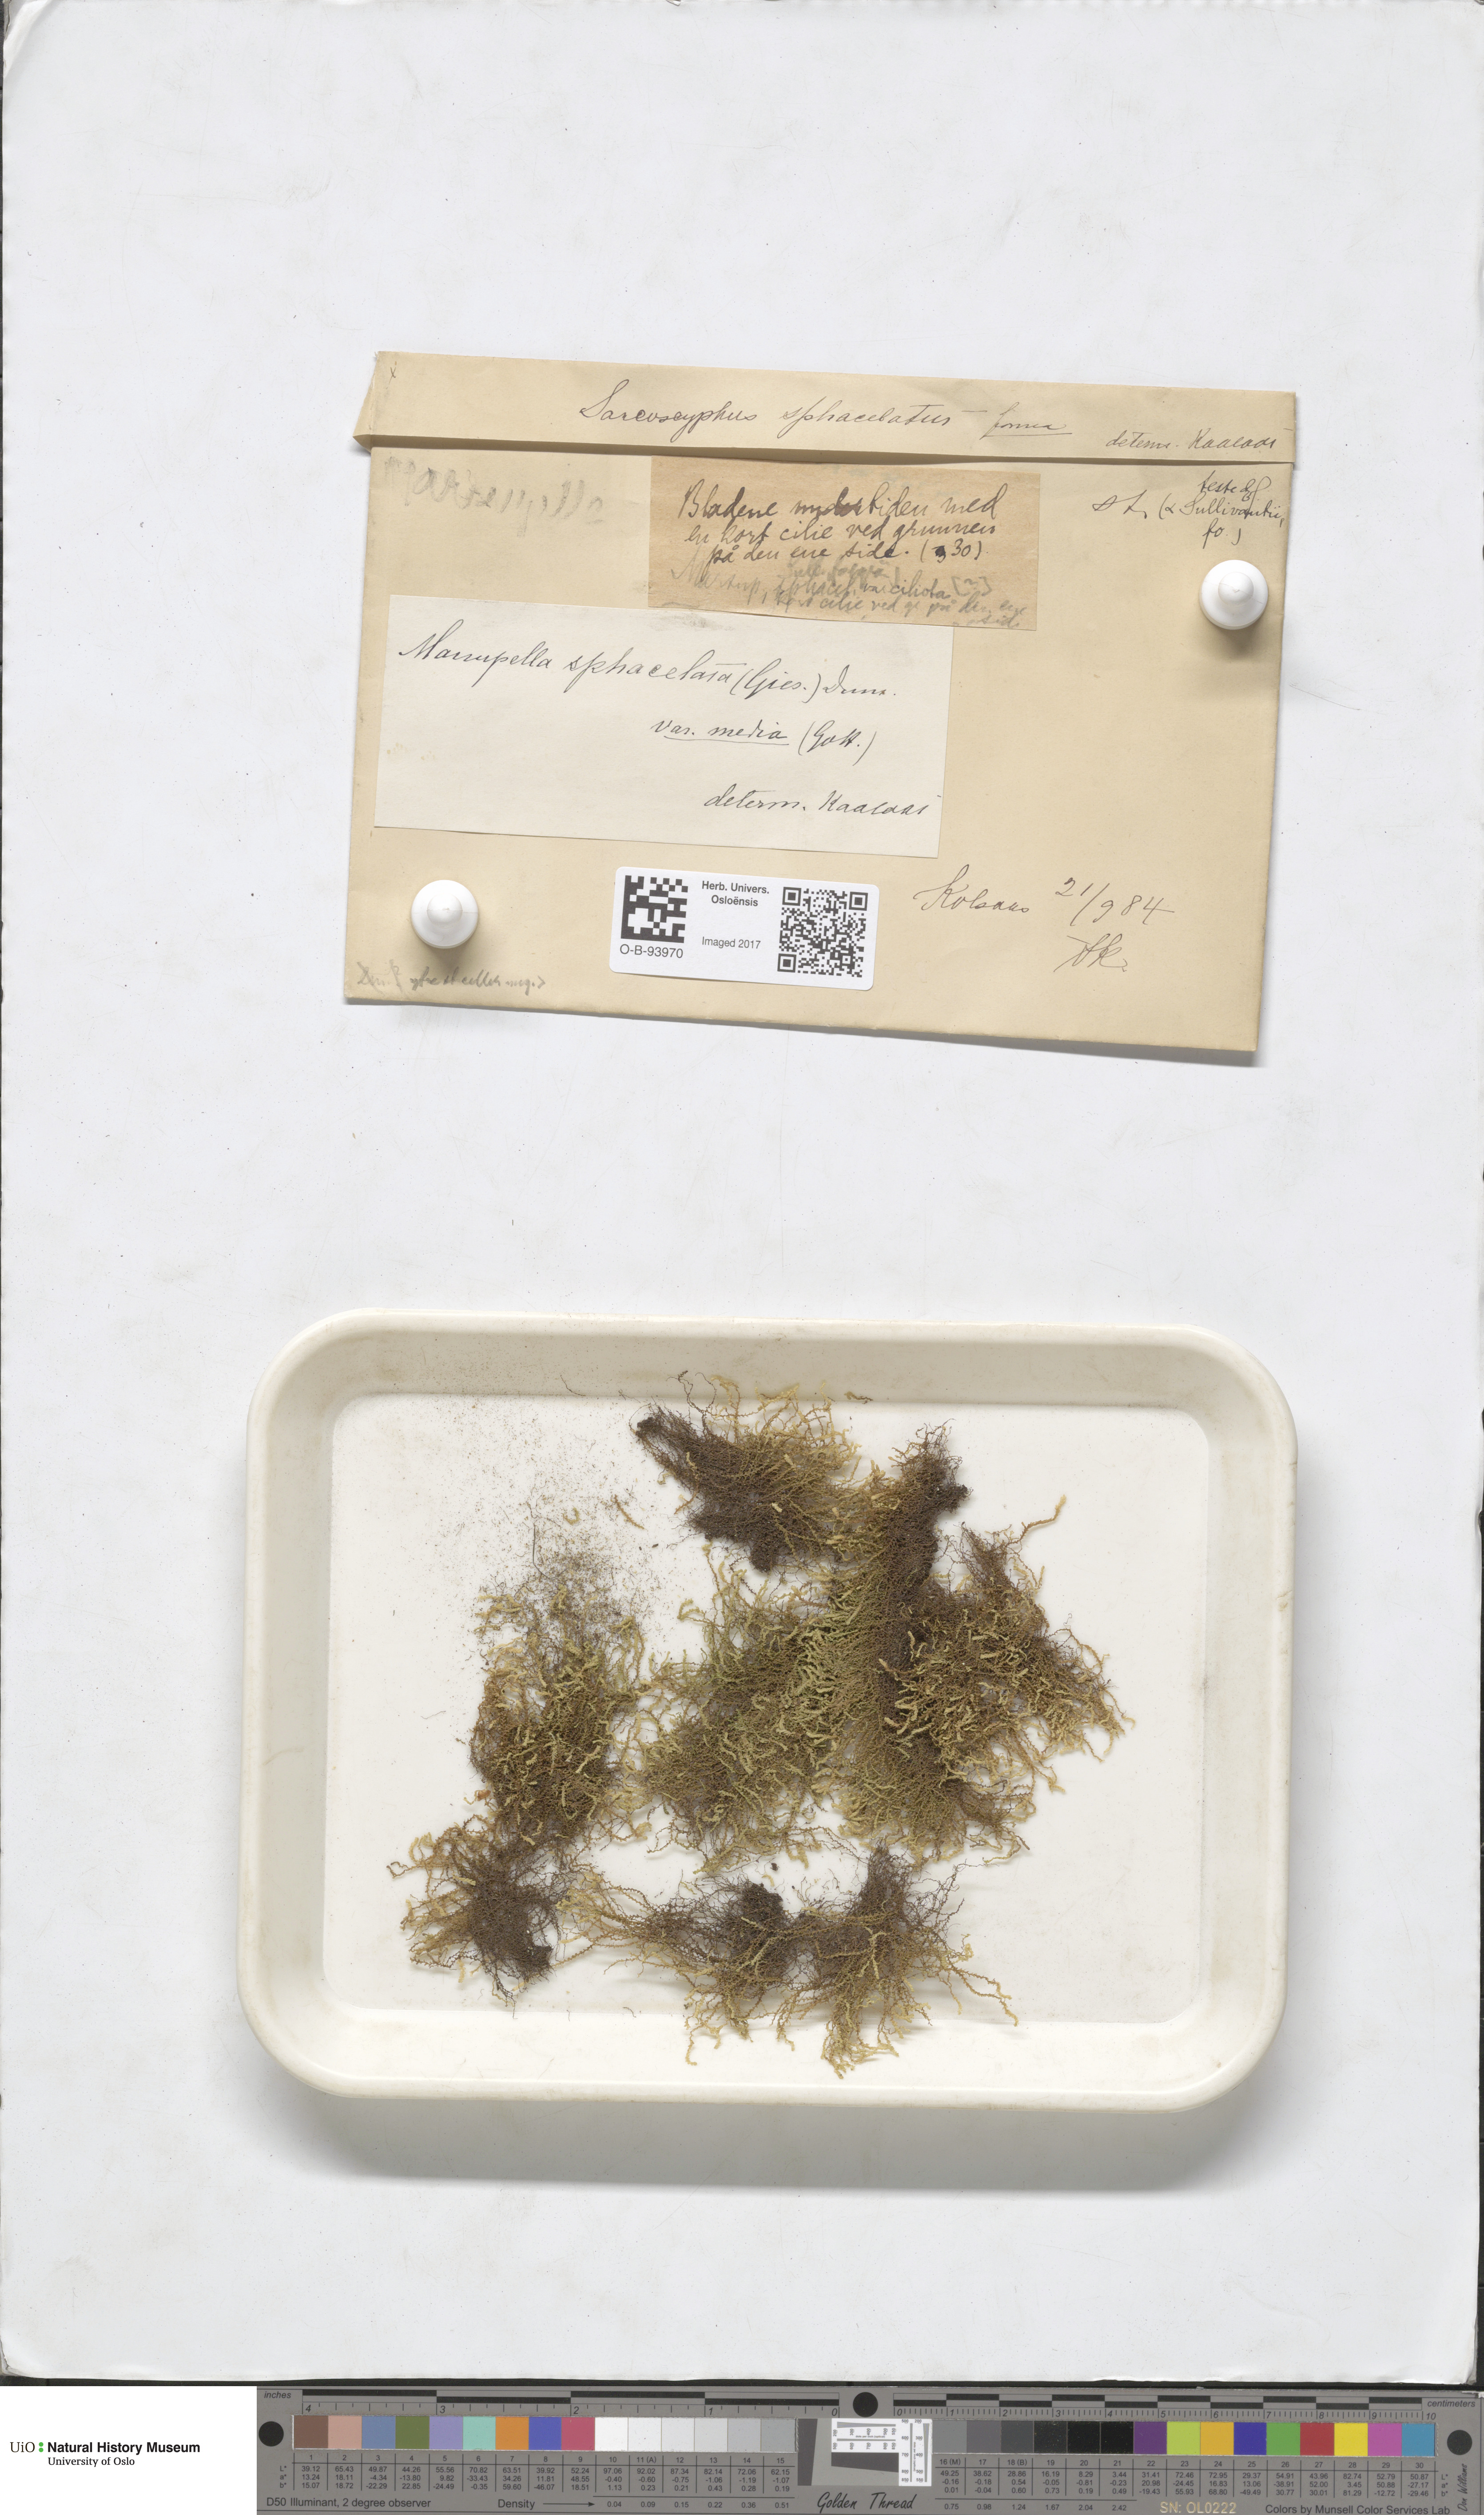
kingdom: Plantae
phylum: Marchantiophyta
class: Jungermanniopsida
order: Jungermanniales
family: Gymnomitriaceae
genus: Marsupella
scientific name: Marsupella sphacelata
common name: Speckled rustwort
